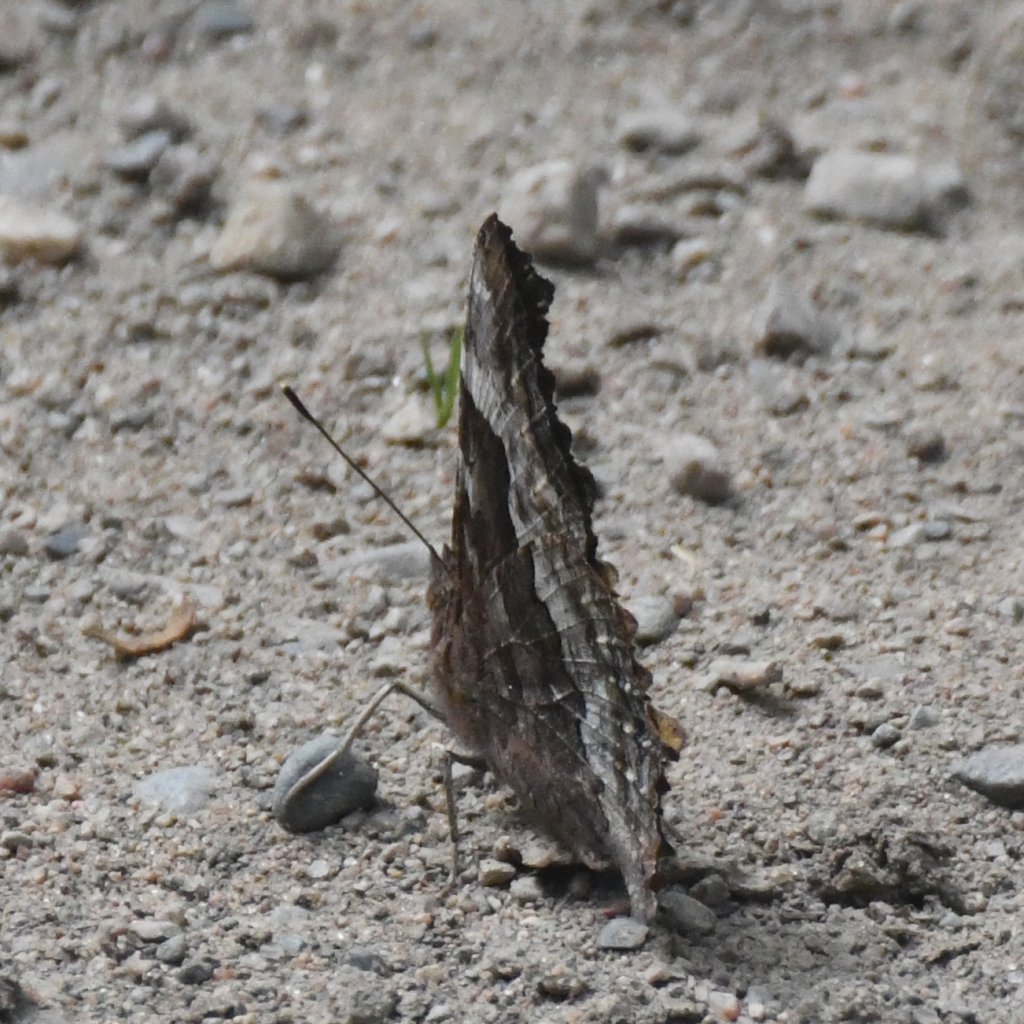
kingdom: Animalia
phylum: Arthropoda
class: Insecta
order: Lepidoptera
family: Nymphalidae
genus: Polygonia
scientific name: Polygonia vaualbum
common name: Compton Tortoiseshell
